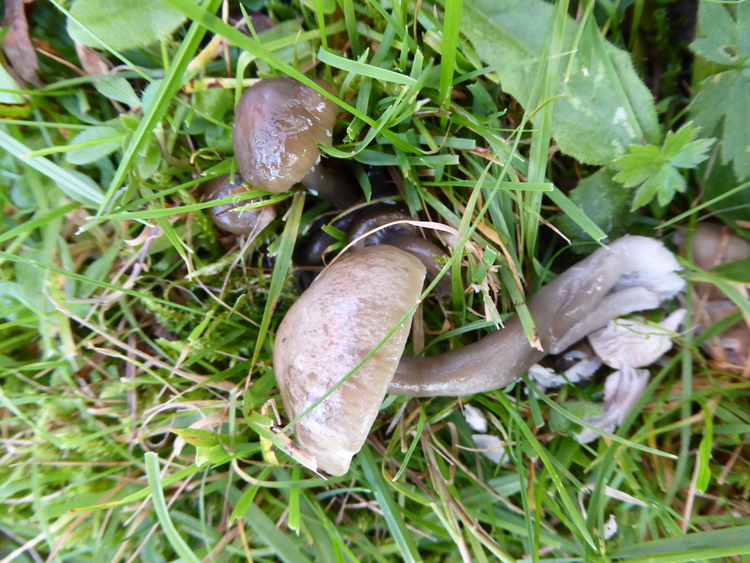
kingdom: Fungi
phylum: Basidiomycota
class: Agaricomycetes
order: Agaricales
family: Hygrophoraceae
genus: Gliophorus
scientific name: Gliophorus irrigatus
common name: slimet vokshat
